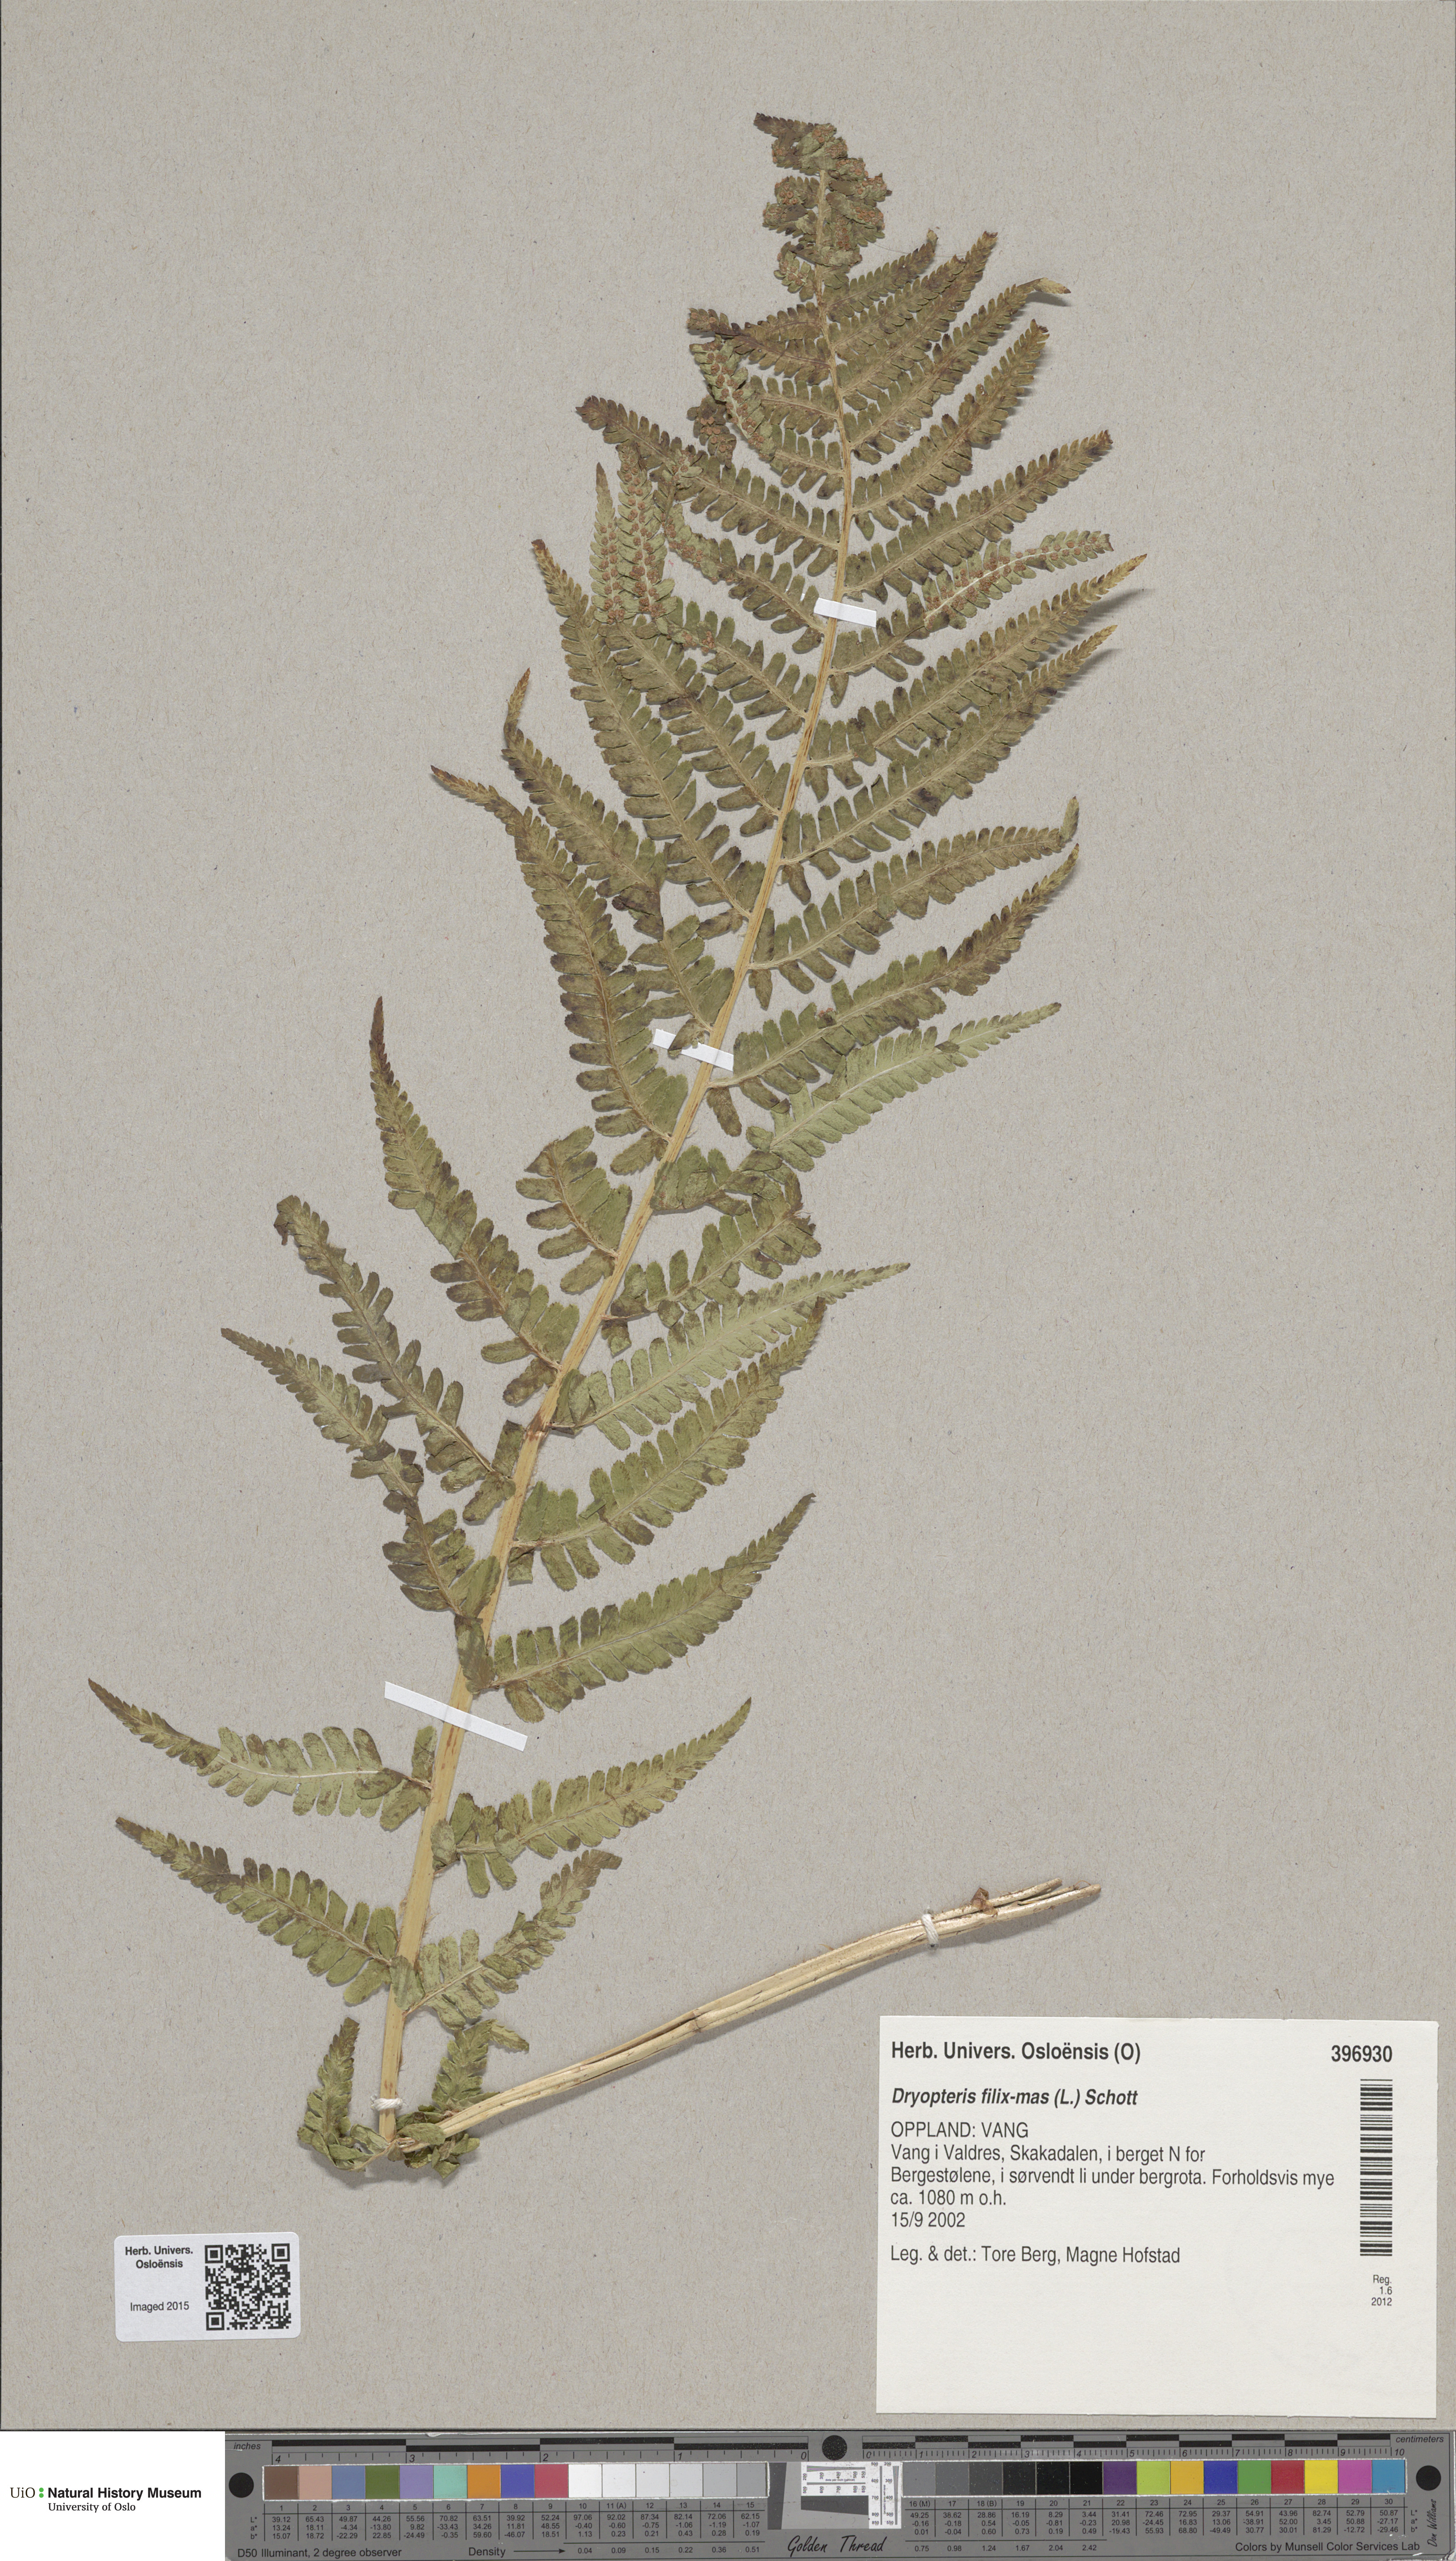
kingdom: Plantae
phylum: Tracheophyta
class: Polypodiopsida
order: Polypodiales
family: Dryopteridaceae
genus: Dryopteris
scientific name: Dryopteris filix-mas
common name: Male fern
